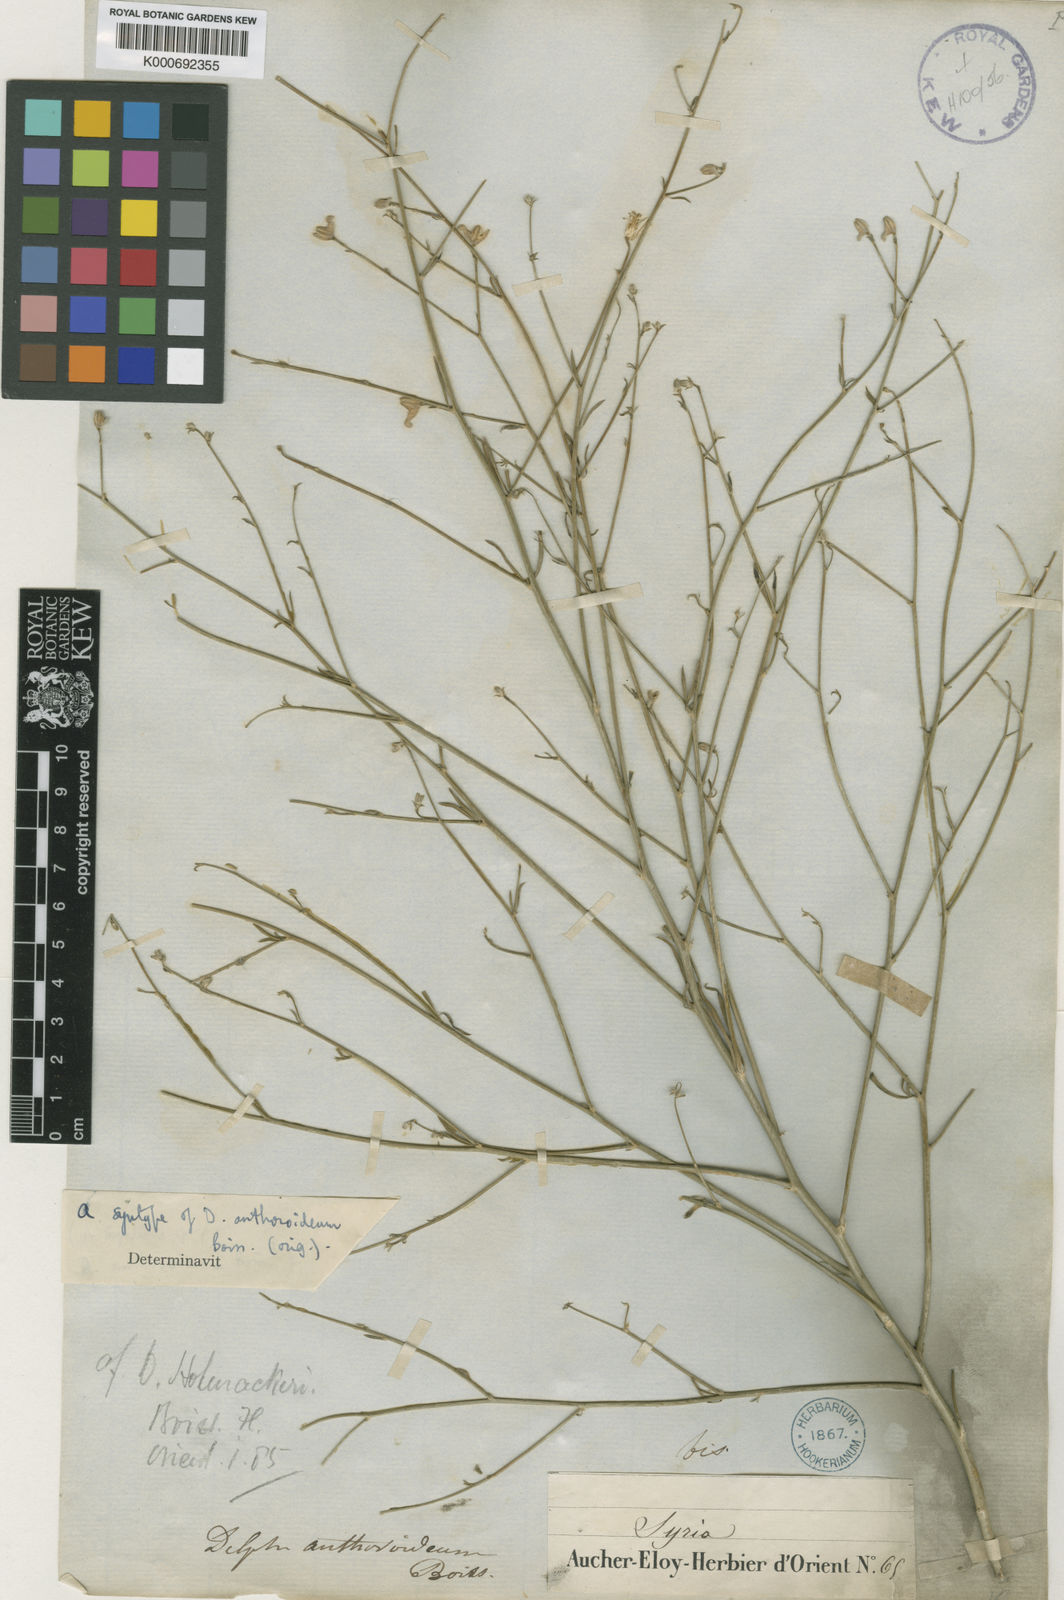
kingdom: Plantae
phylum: Tracheophyta
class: Magnoliopsida
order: Ranunculales
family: Ranunculaceae
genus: Delphinium
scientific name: Delphinium
